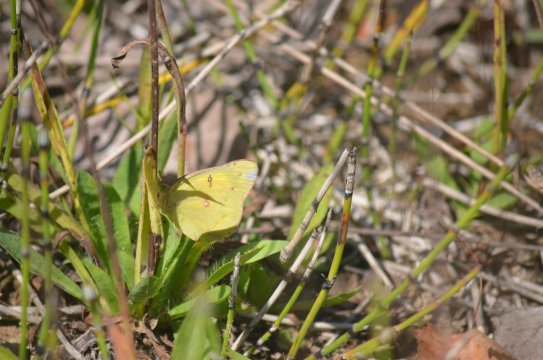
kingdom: Animalia
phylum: Arthropoda
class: Insecta
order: Lepidoptera
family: Pieridae
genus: Colias
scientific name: Colias philodice
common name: Clouded Sulphur
